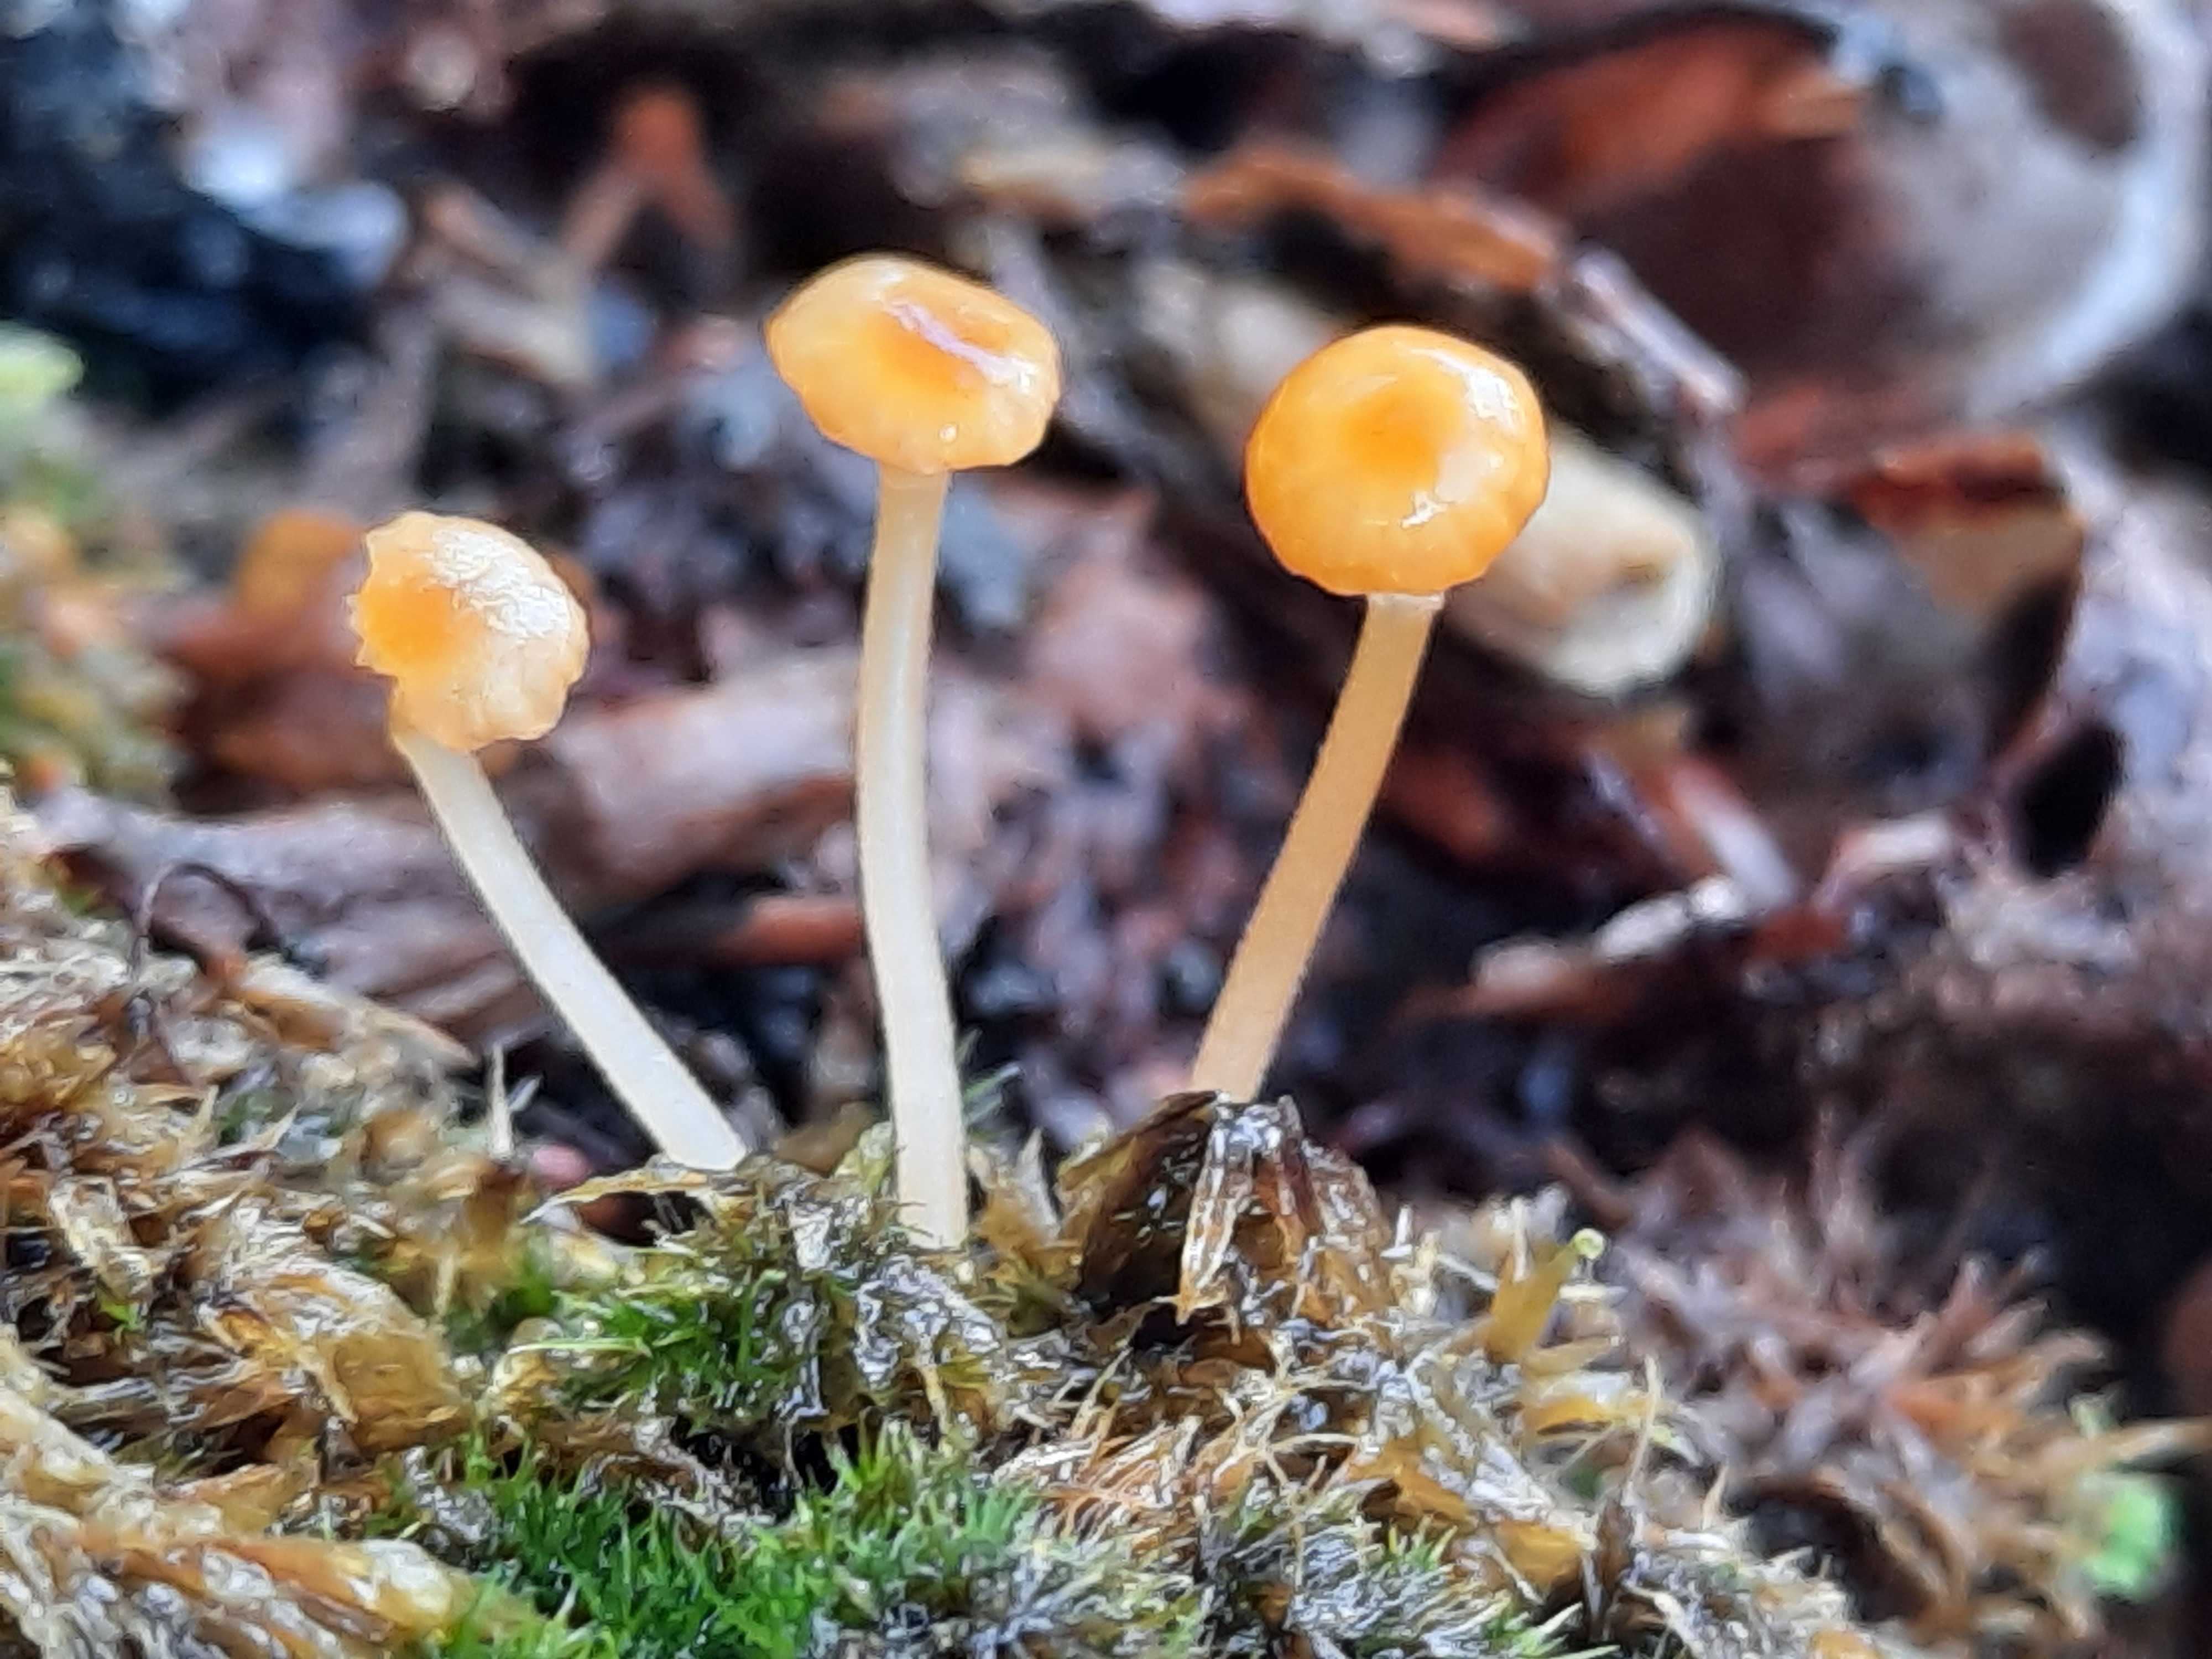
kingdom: Fungi
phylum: Basidiomycota
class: Agaricomycetes
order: Hymenochaetales
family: Rickenellaceae
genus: Rickenella
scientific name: Rickenella fibula
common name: orange mosnavlehat
